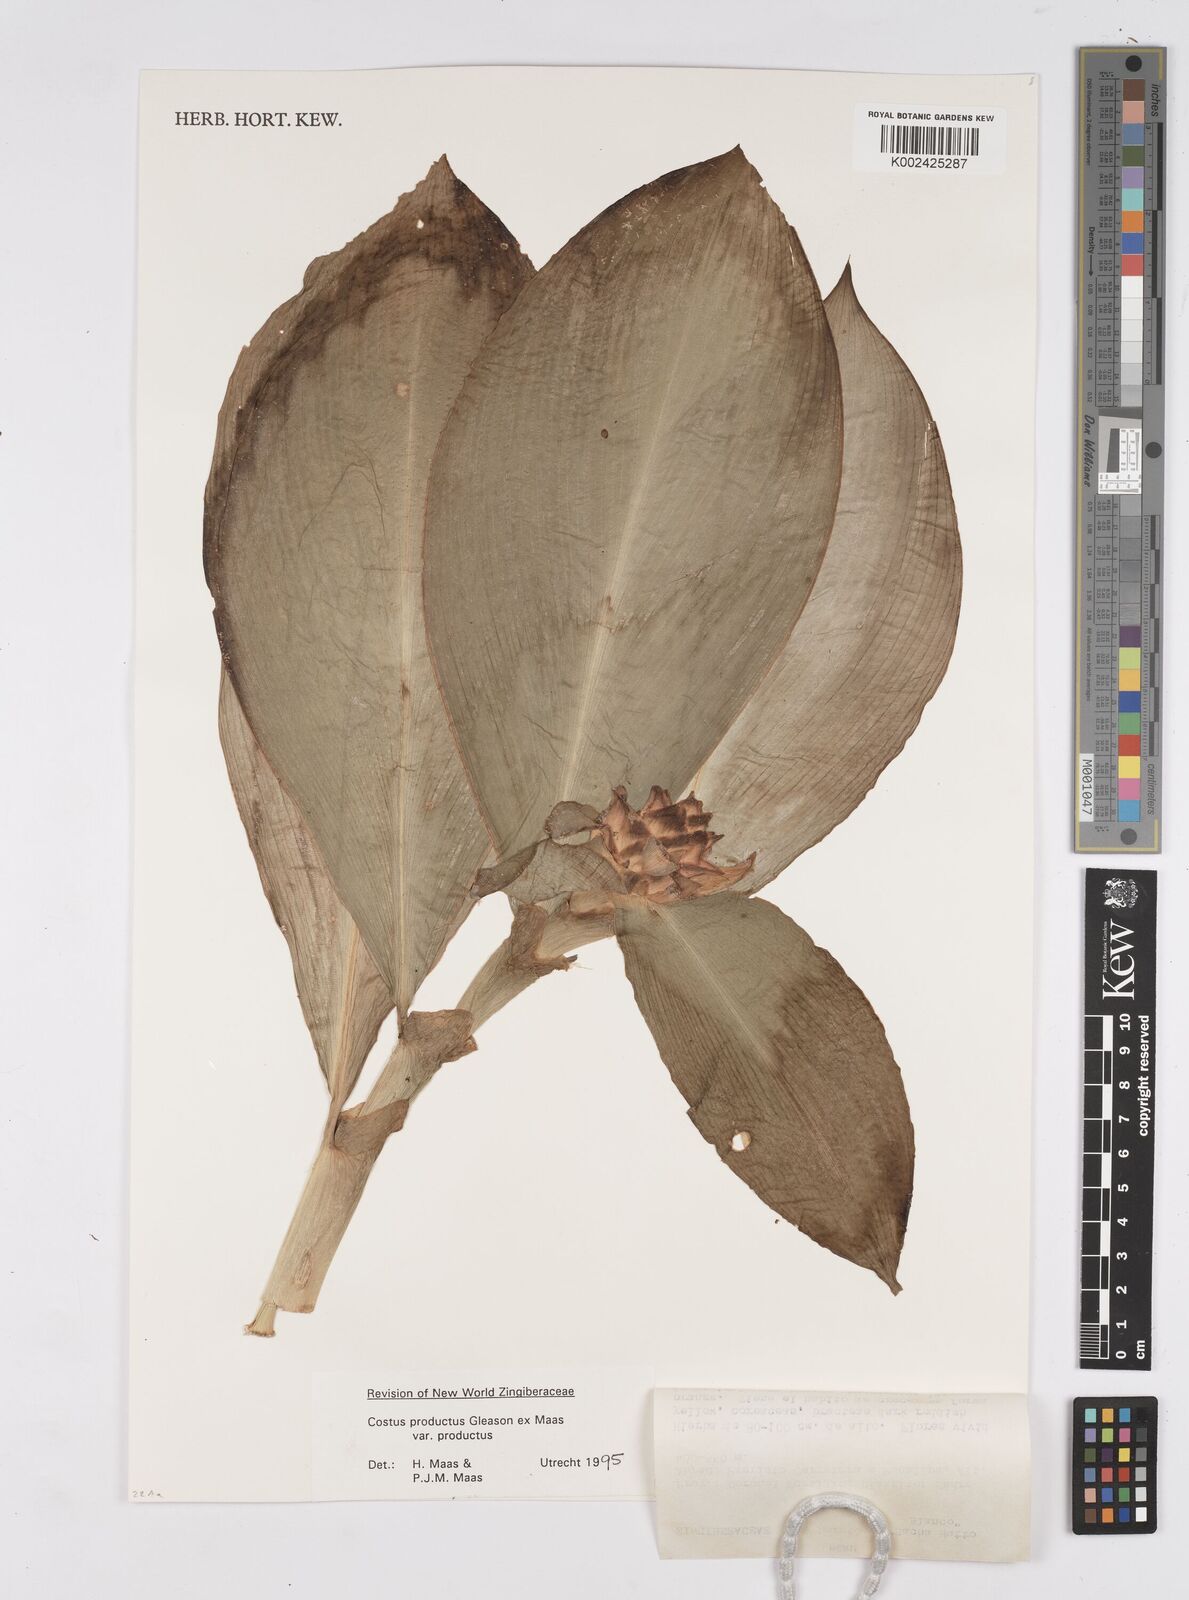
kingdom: Plantae
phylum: Tracheophyta
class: Liliopsida
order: Zingiberales
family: Costaceae
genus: Costus
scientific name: Costus productus
